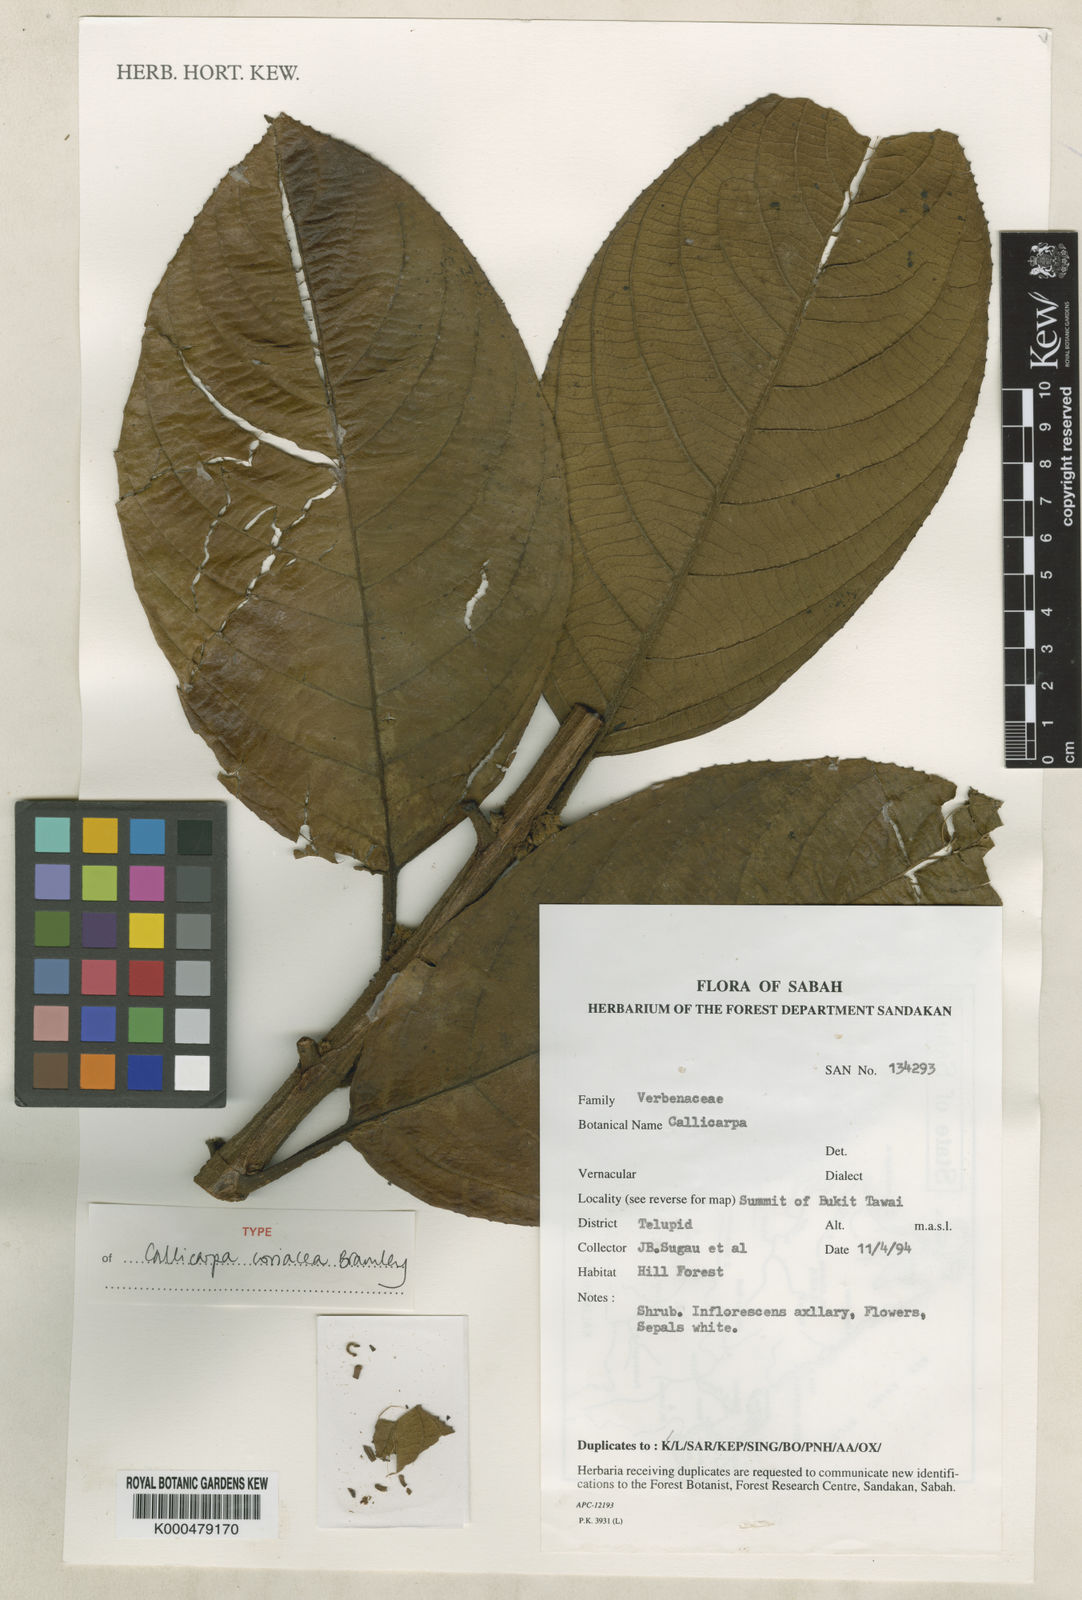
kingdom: Plantae
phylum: Tracheophyta
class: Magnoliopsida
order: Lamiales
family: Lamiaceae
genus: Callicarpa
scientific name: Callicarpa coriacea
